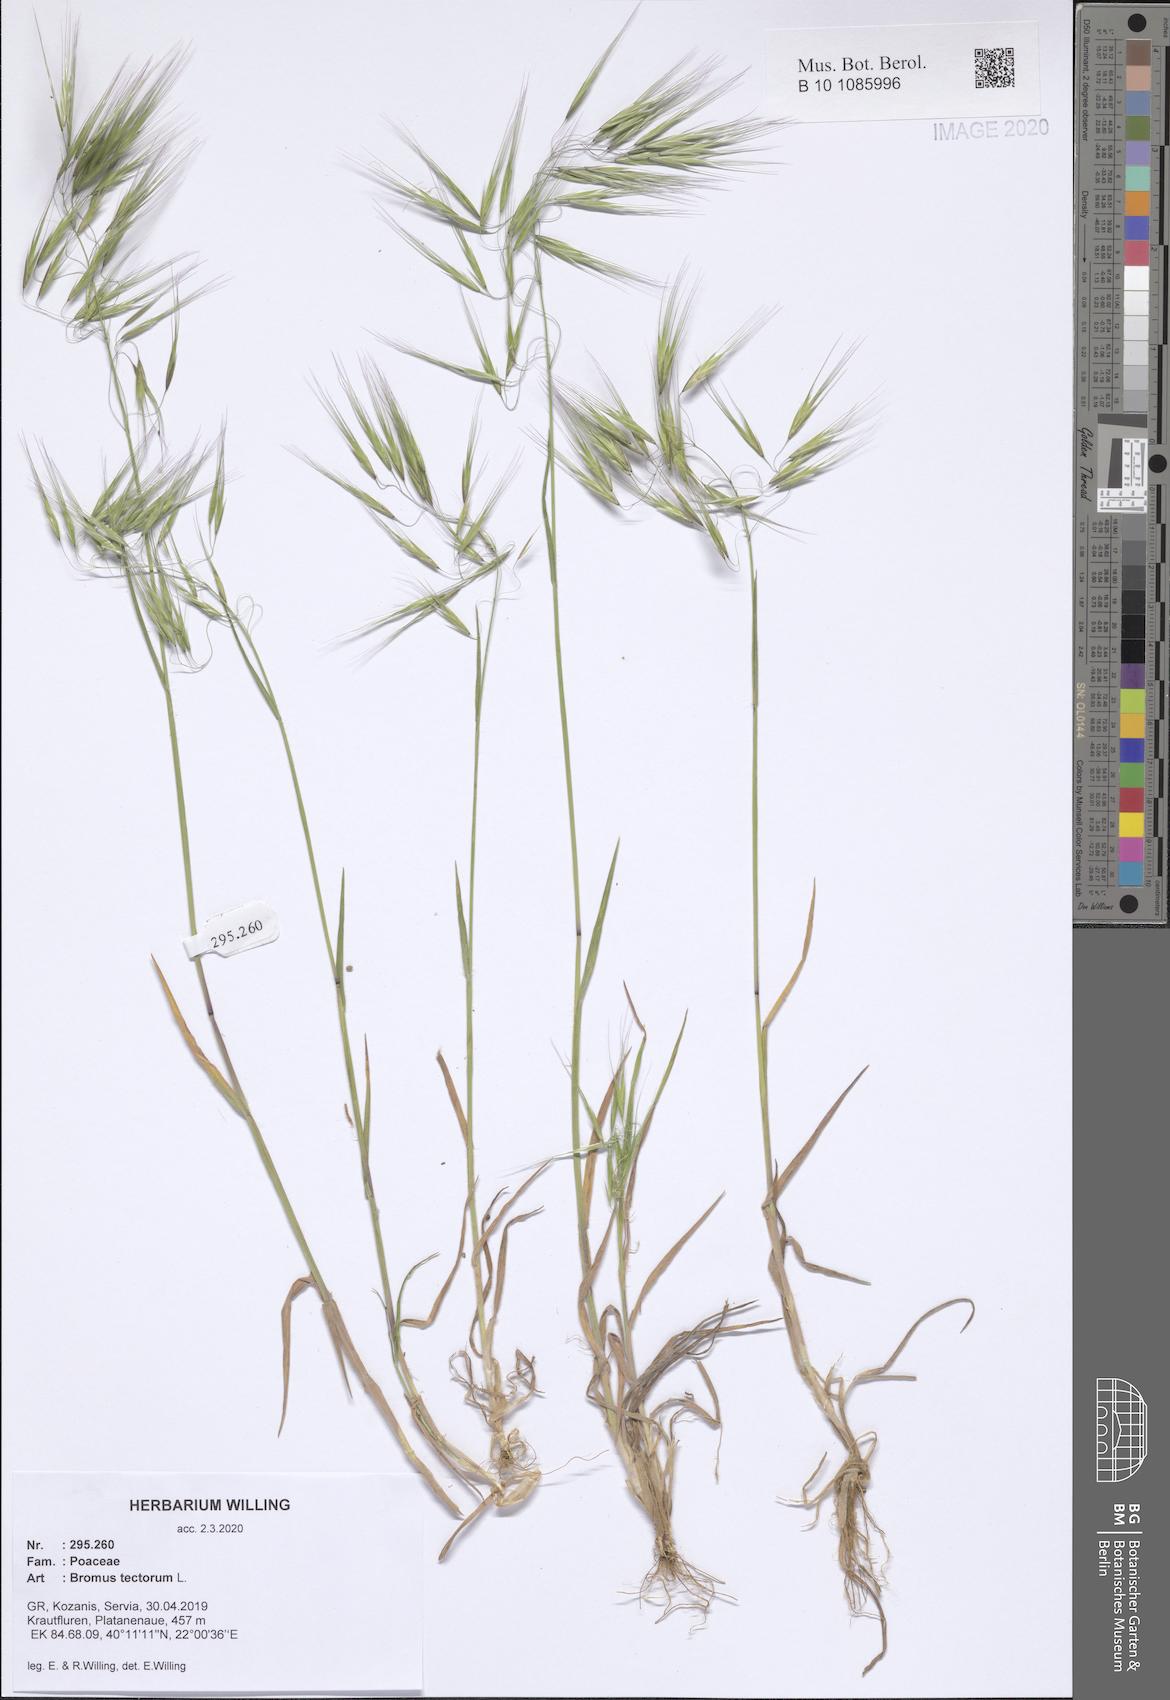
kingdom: Plantae
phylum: Tracheophyta
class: Liliopsida
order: Poales
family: Poaceae
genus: Bromus
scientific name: Bromus tectorum
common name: Cheatgrass
